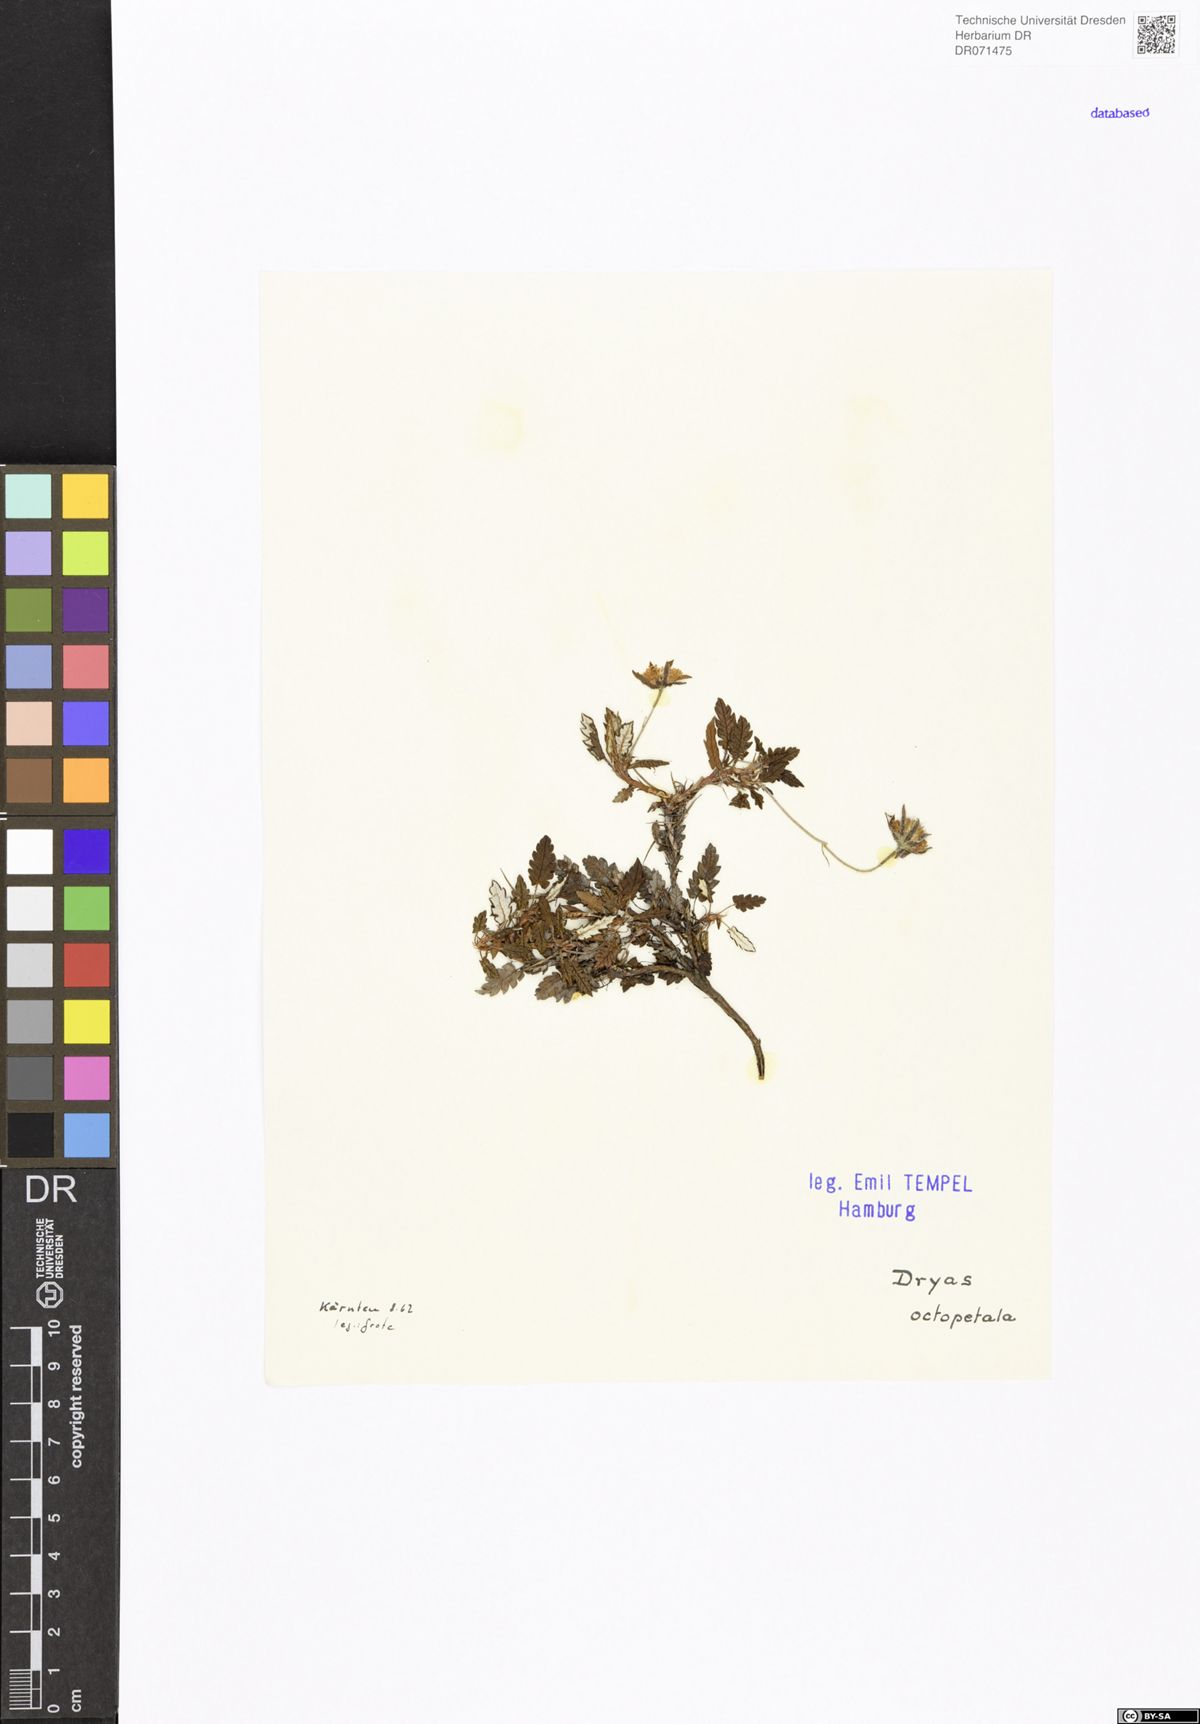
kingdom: Plantae
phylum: Tracheophyta
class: Magnoliopsida
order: Rosales
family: Rosaceae
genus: Dryas
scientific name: Dryas octopetala
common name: Eight-petal mountain-avens
